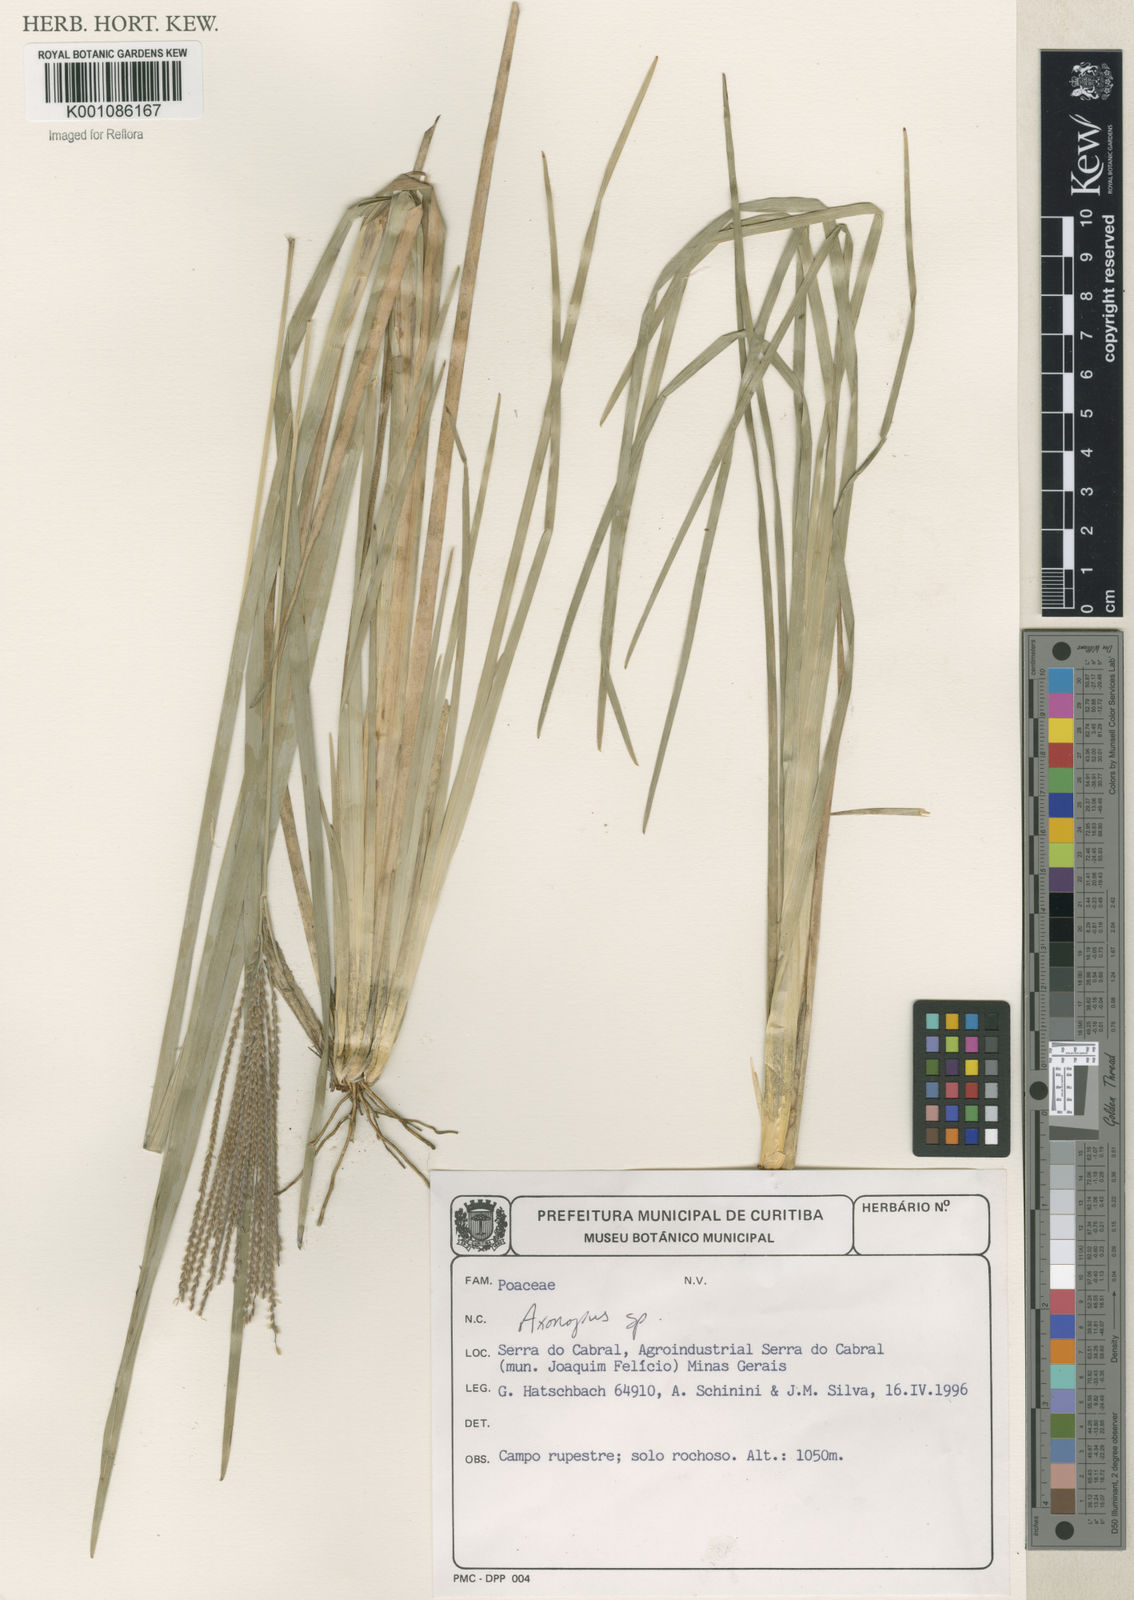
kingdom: Plantae
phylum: Tracheophyta
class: Liliopsida
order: Poales
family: Poaceae
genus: Axonopus
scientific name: Axonopus
